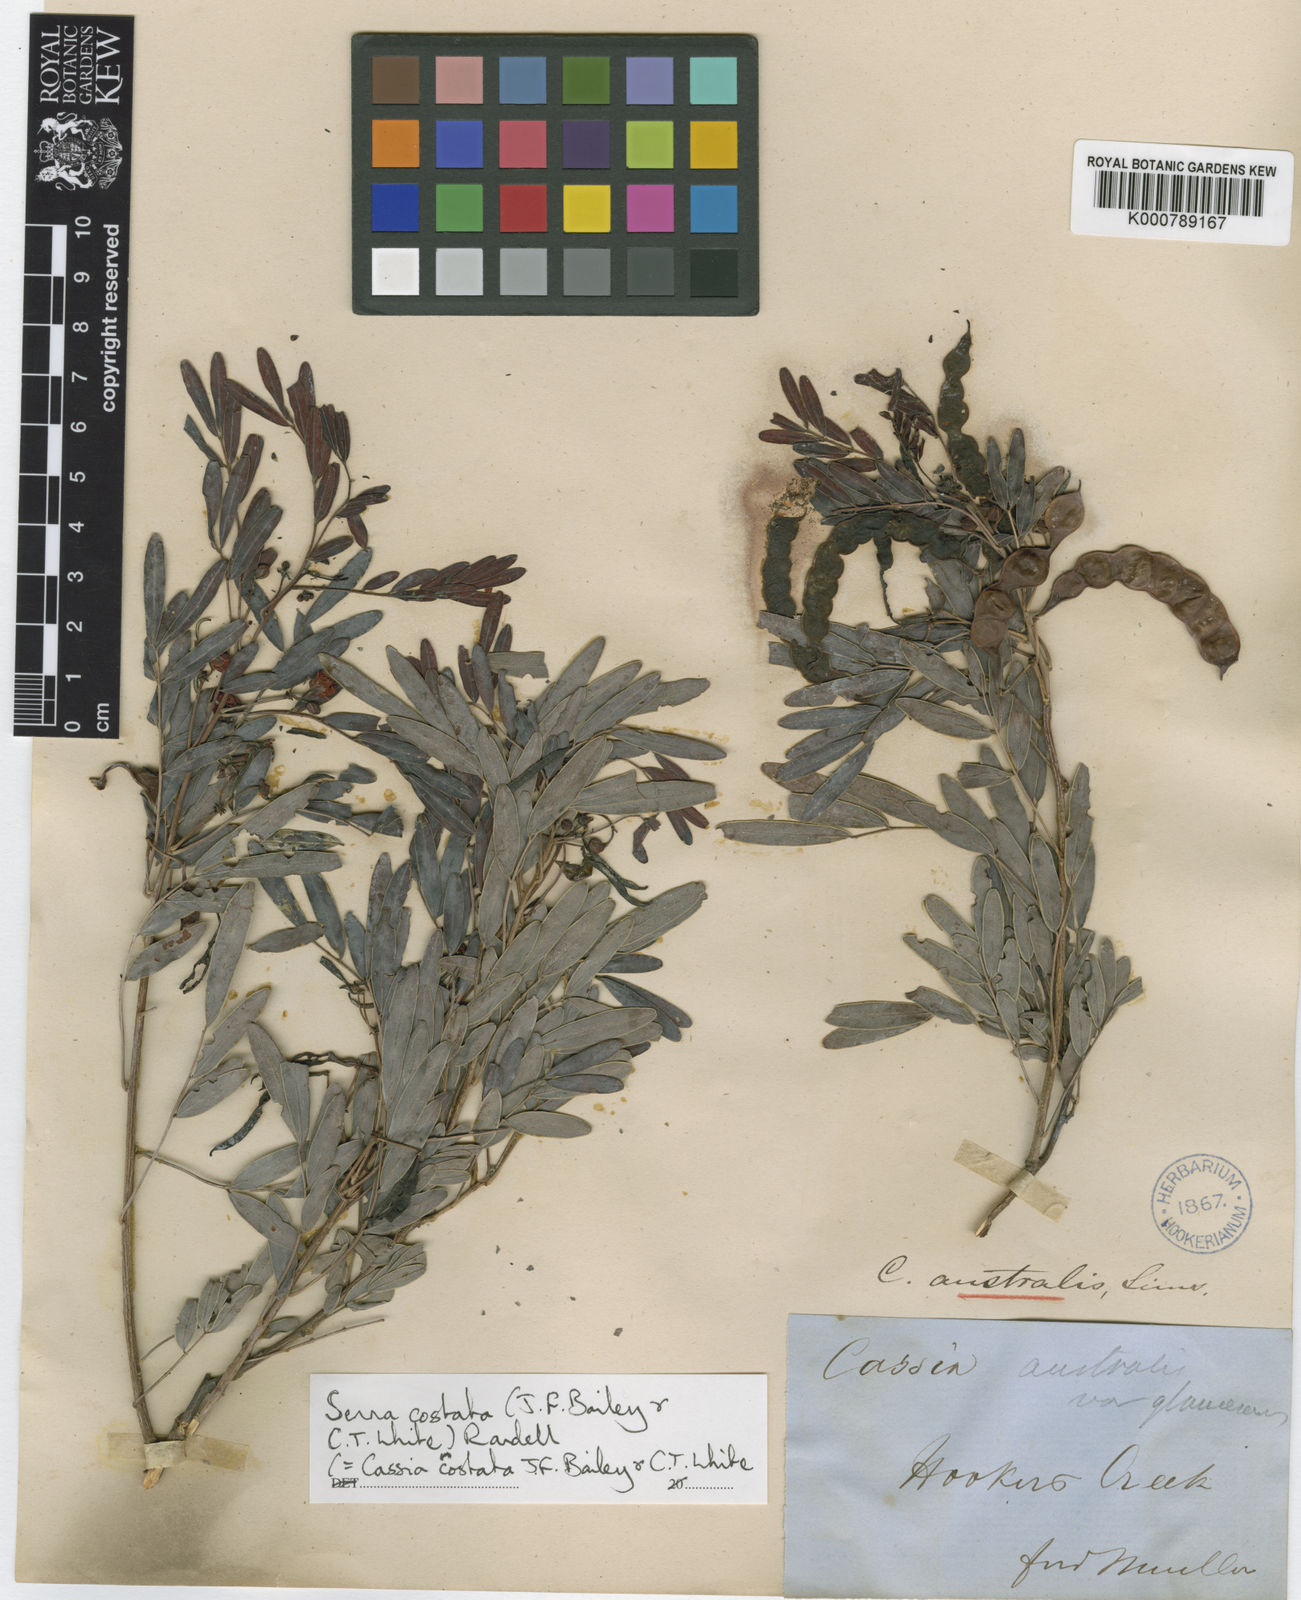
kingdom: Plantae
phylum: Tracheophyta
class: Magnoliopsida
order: Fabales
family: Fabaceae
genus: Senna
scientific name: Senna costata
